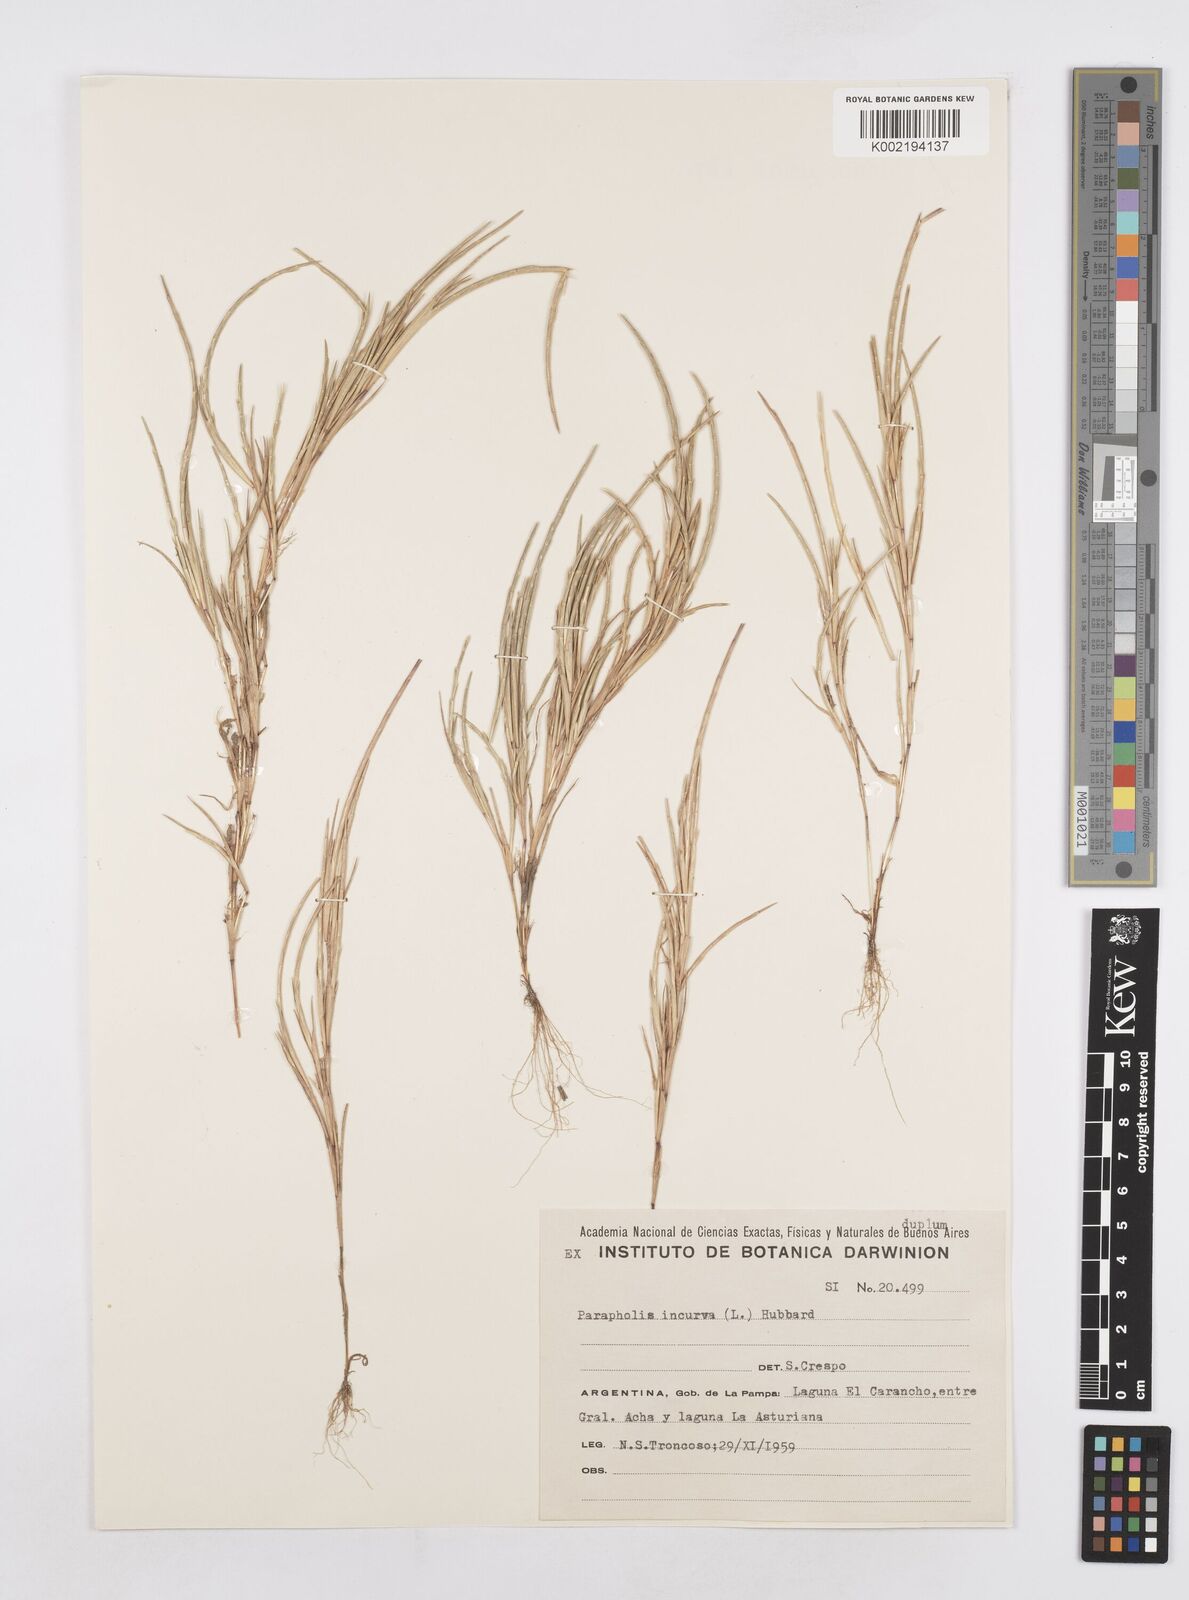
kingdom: Plantae
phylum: Tracheophyta
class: Liliopsida
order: Poales
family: Poaceae
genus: Parapholis
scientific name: Parapholis incurva
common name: Curved sicklegrass
